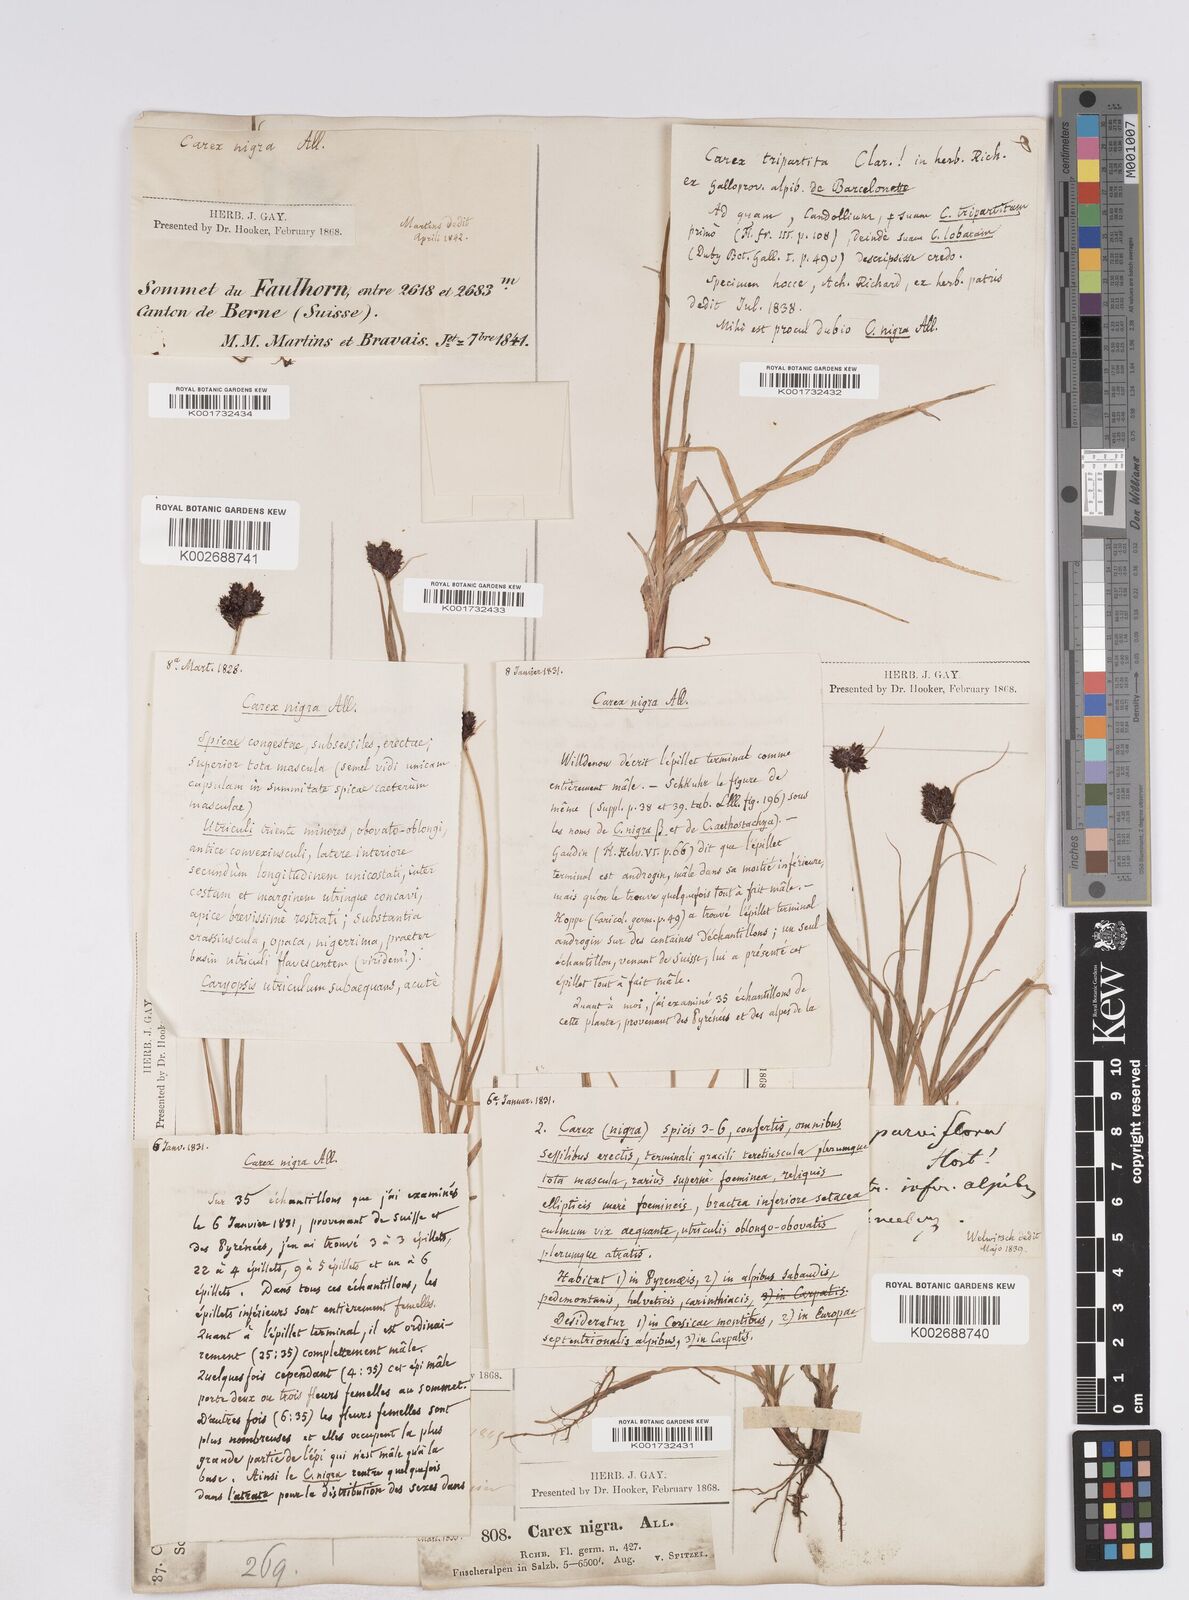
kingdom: Plantae
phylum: Tracheophyta
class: Liliopsida
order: Poales
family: Cyperaceae
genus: Carex
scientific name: Carex parviflora
